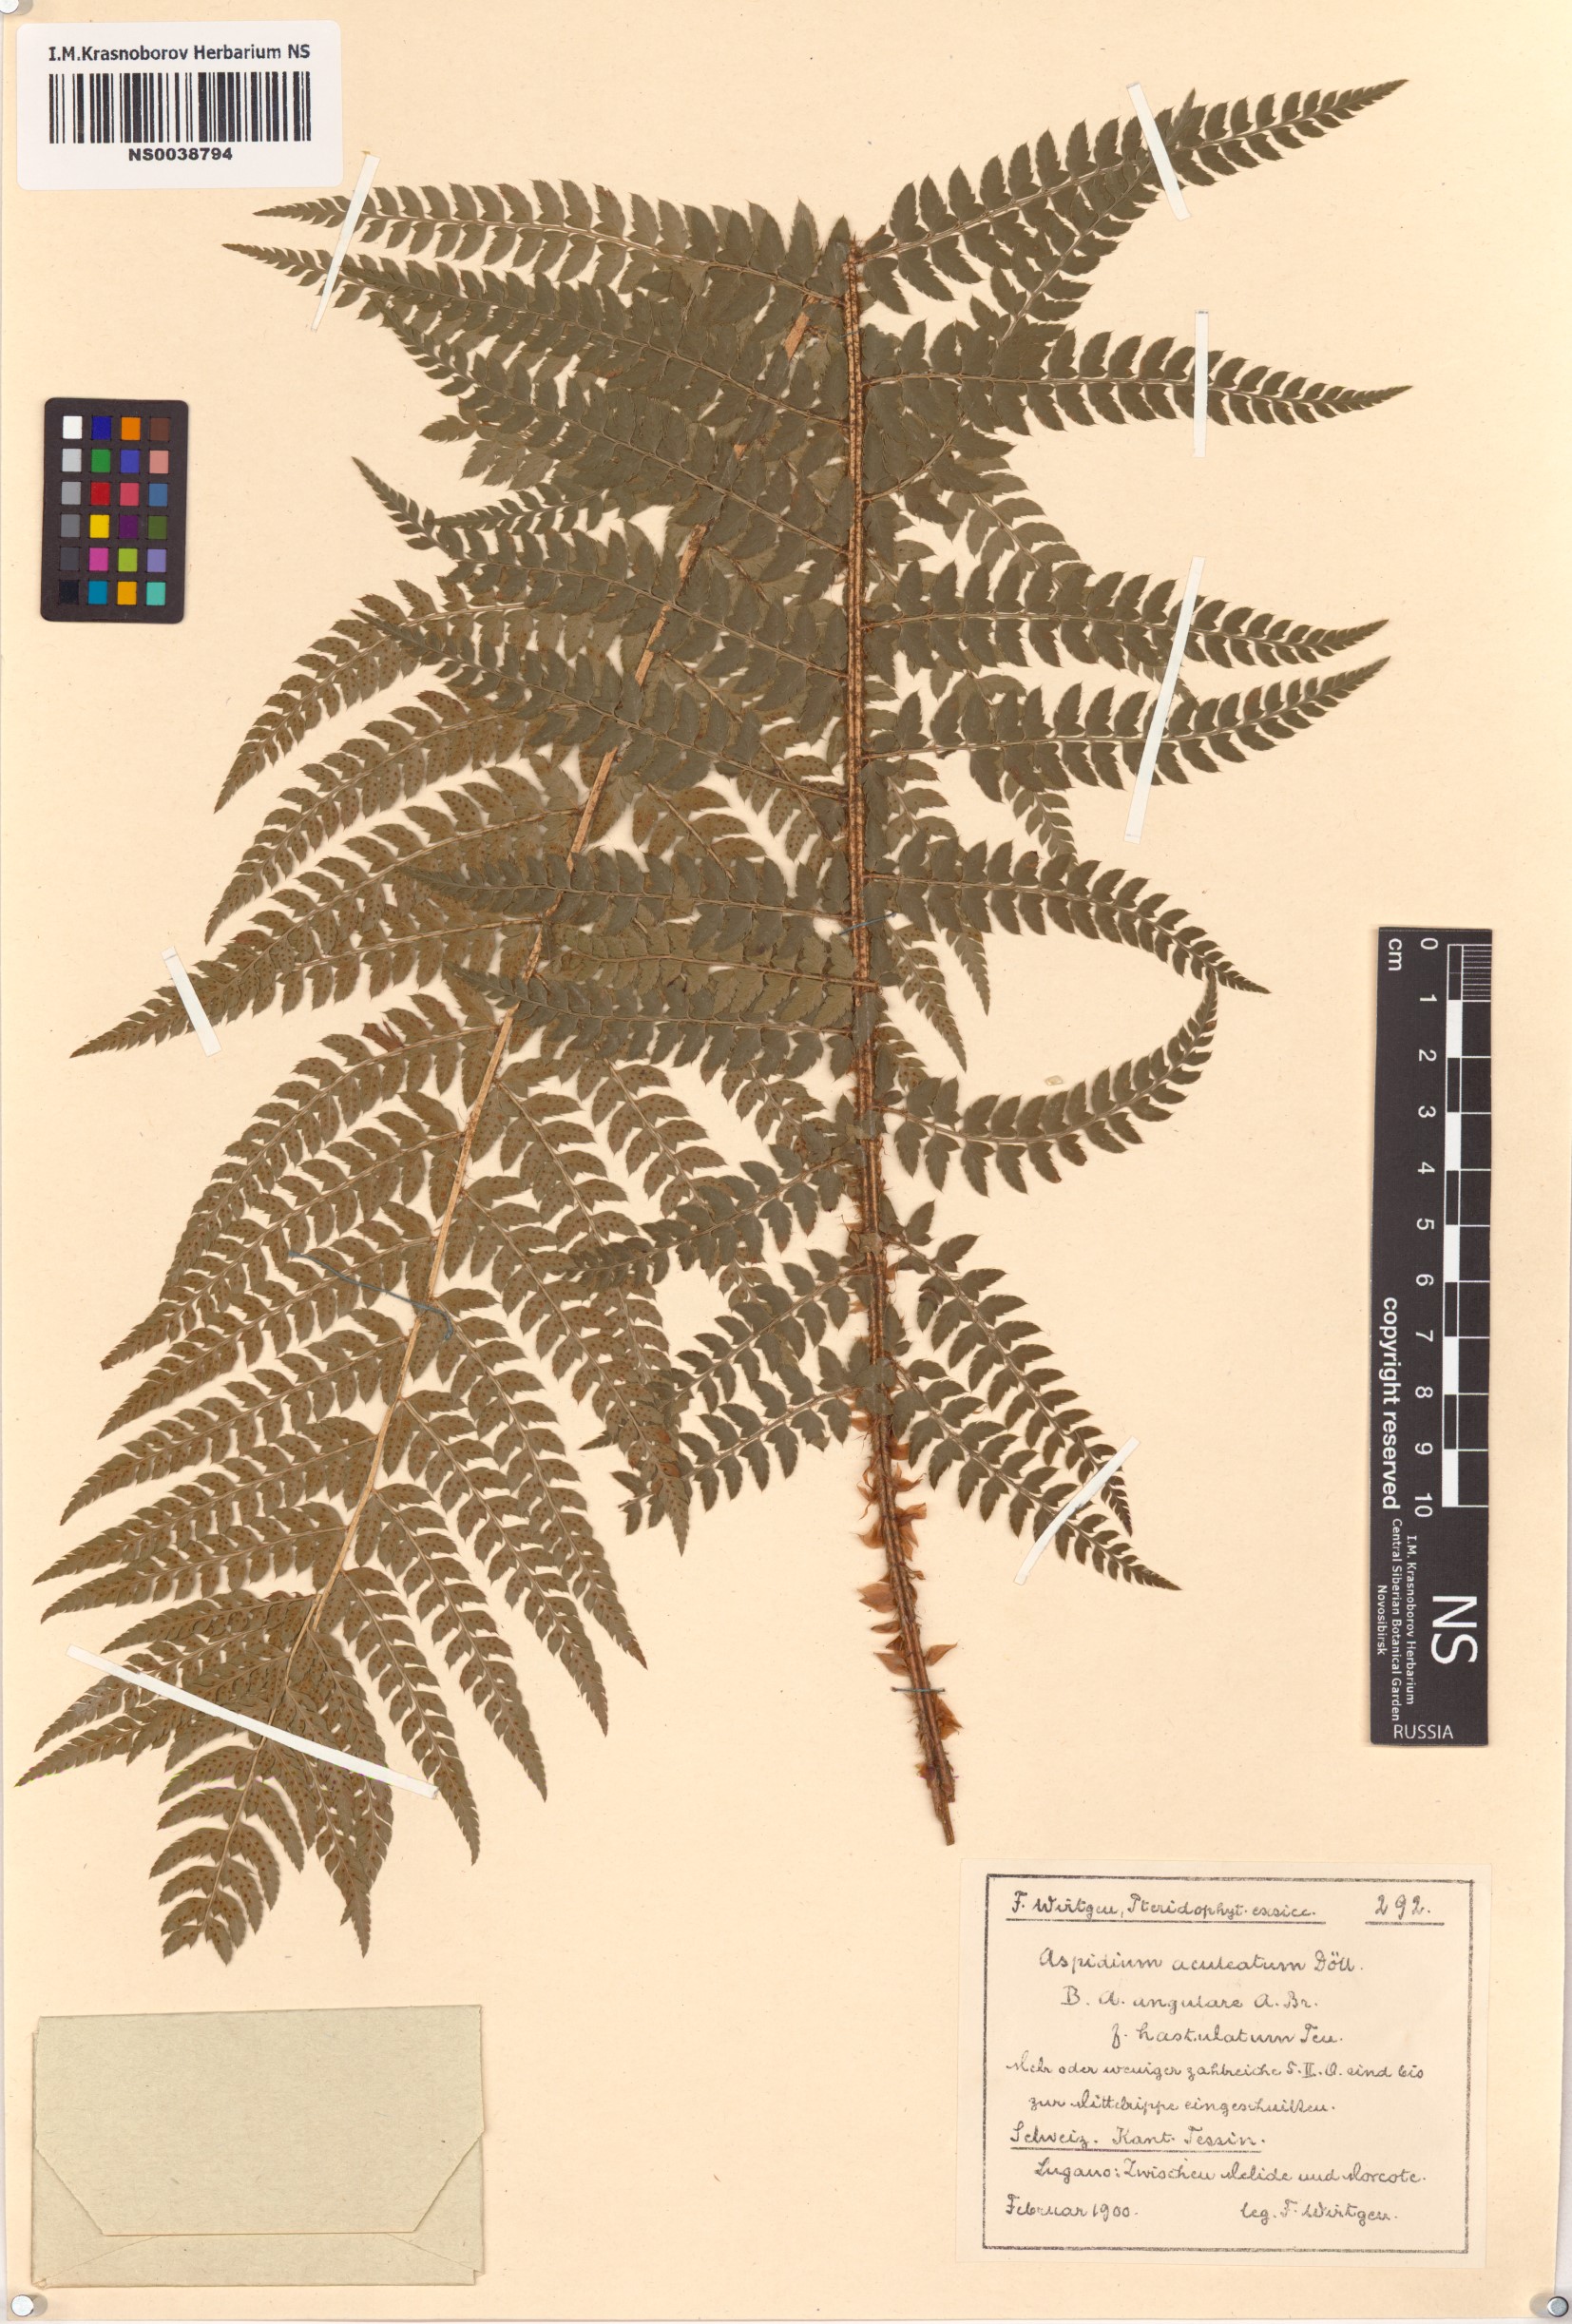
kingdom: Plantae
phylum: Tracheophyta
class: Polypodiopsida
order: Polypodiales
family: Dryopteridaceae
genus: Polystichum
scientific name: Polystichum aculeatum
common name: Hard shield-fern
